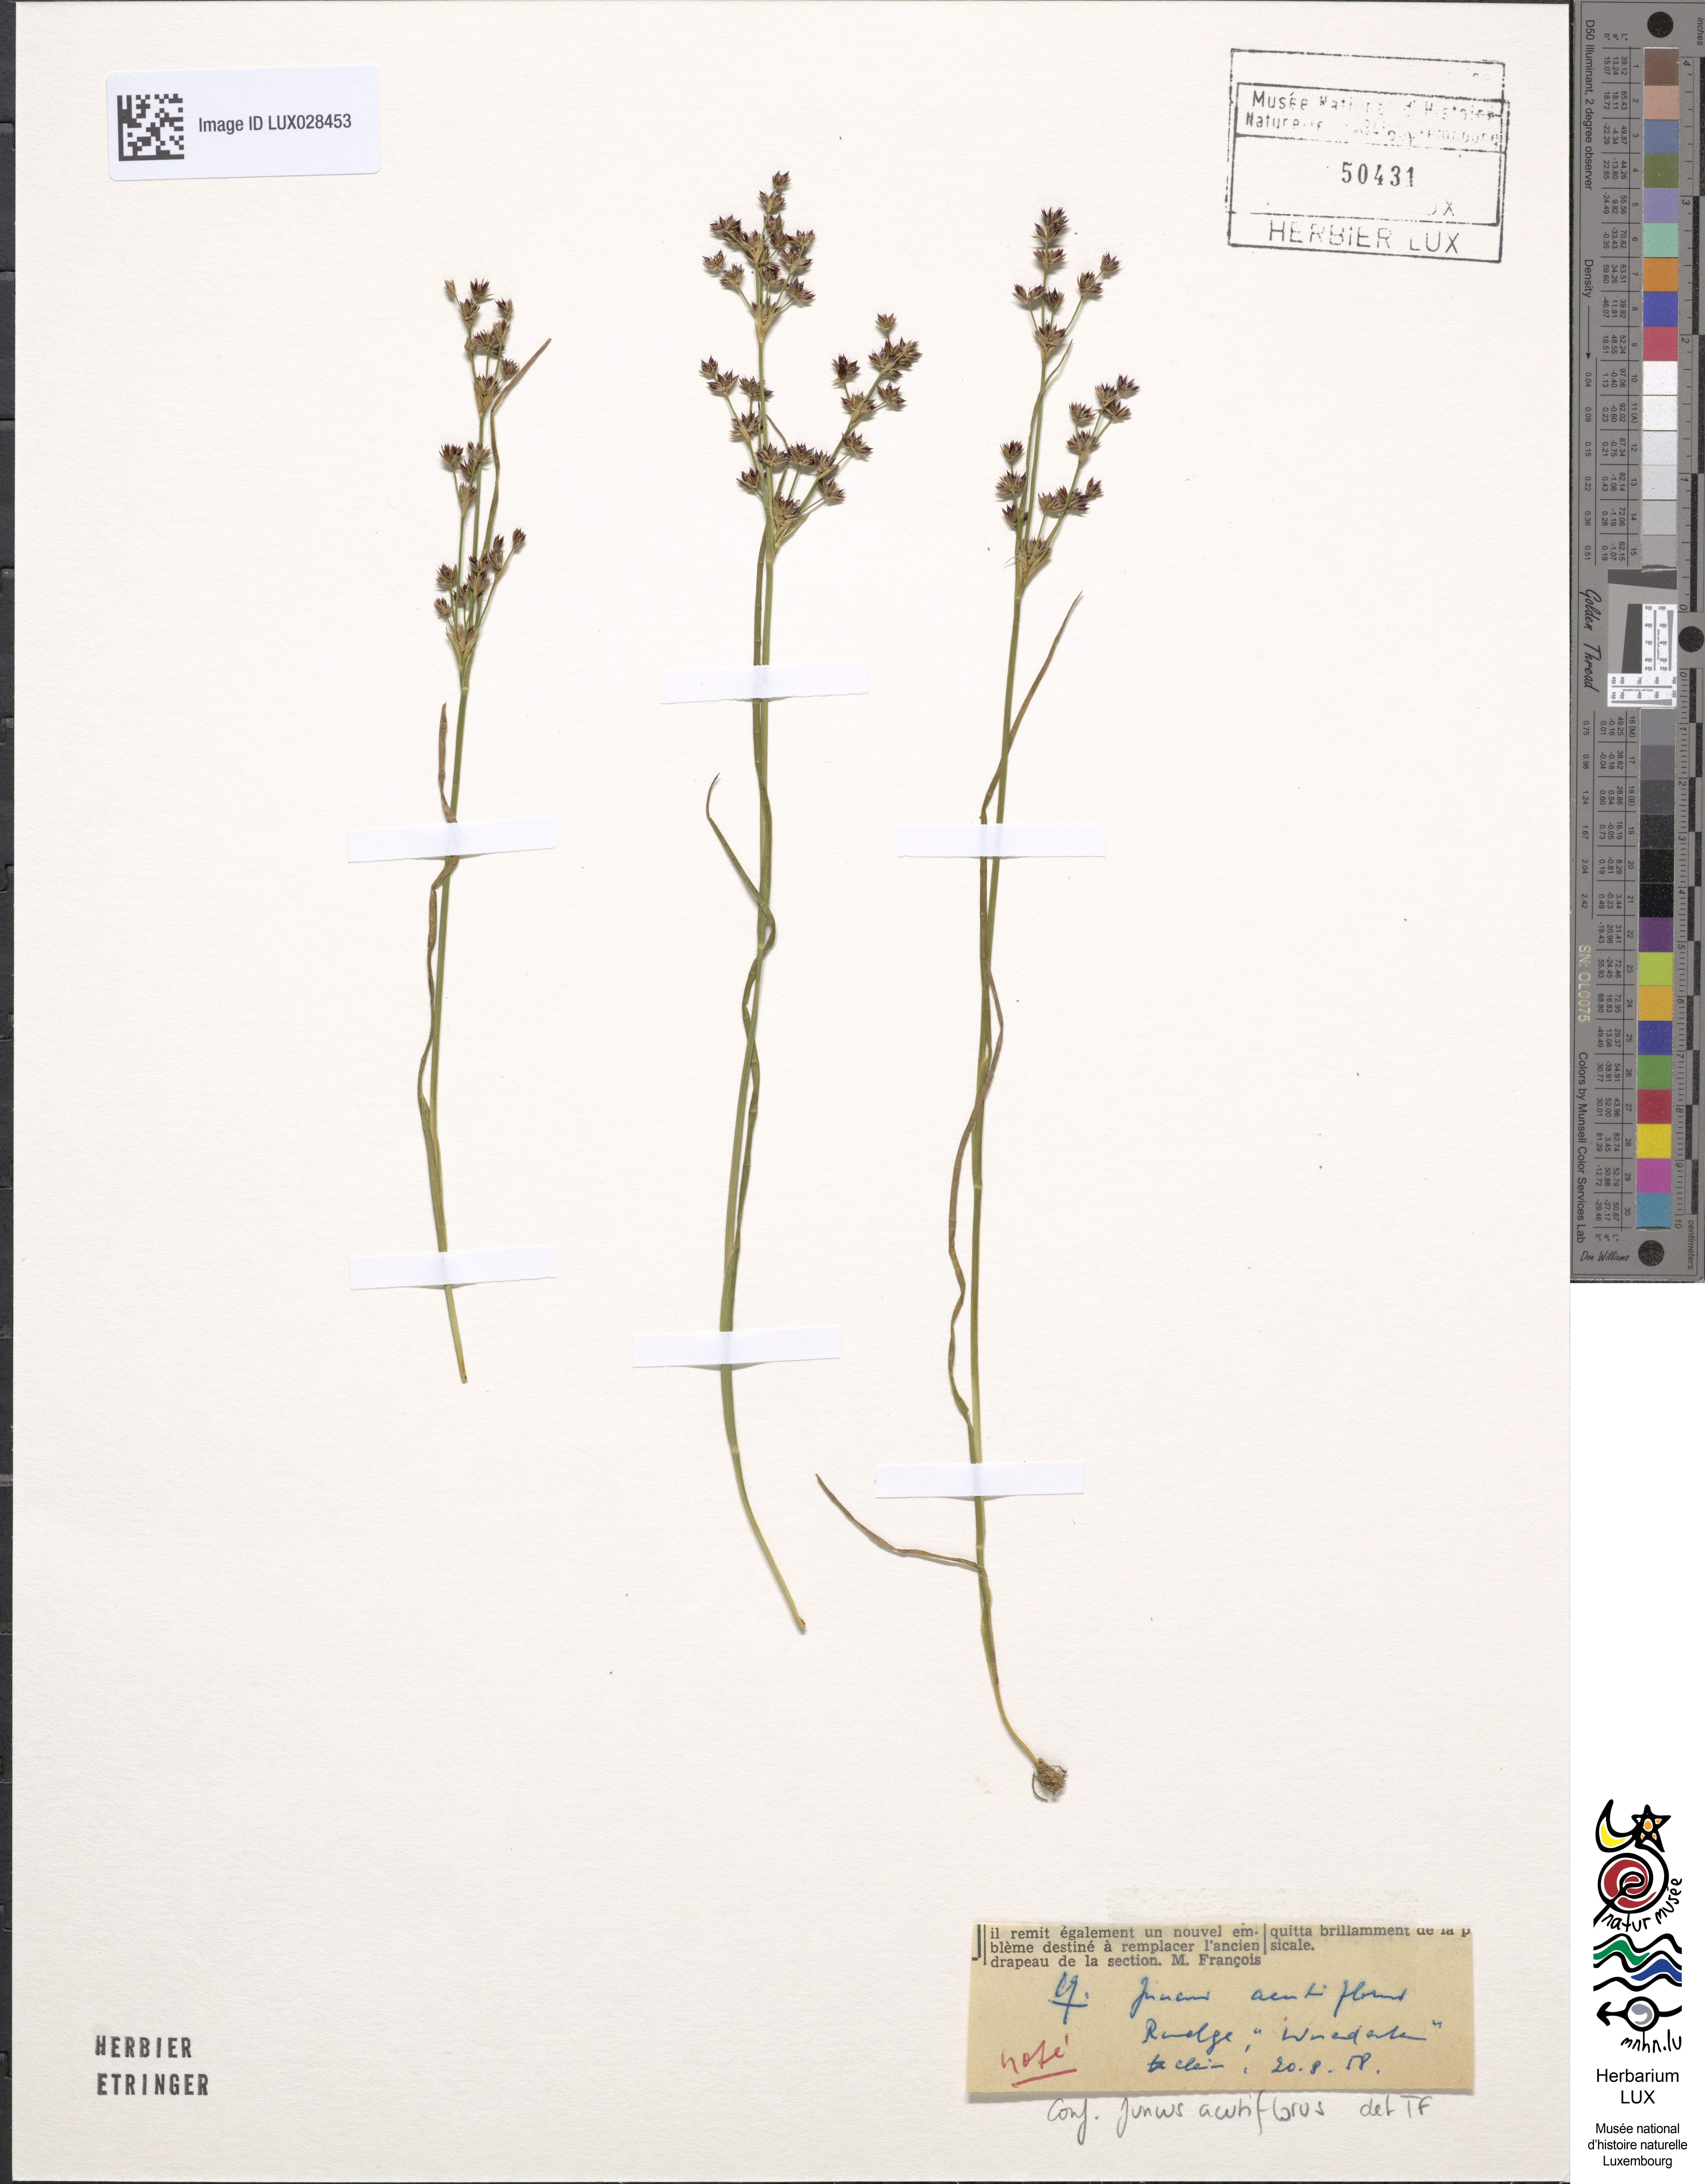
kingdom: Plantae
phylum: Tracheophyta
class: Liliopsida
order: Poales
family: Juncaceae
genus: Juncus
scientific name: Juncus acutiflorus
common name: Sharp-flowered rush
